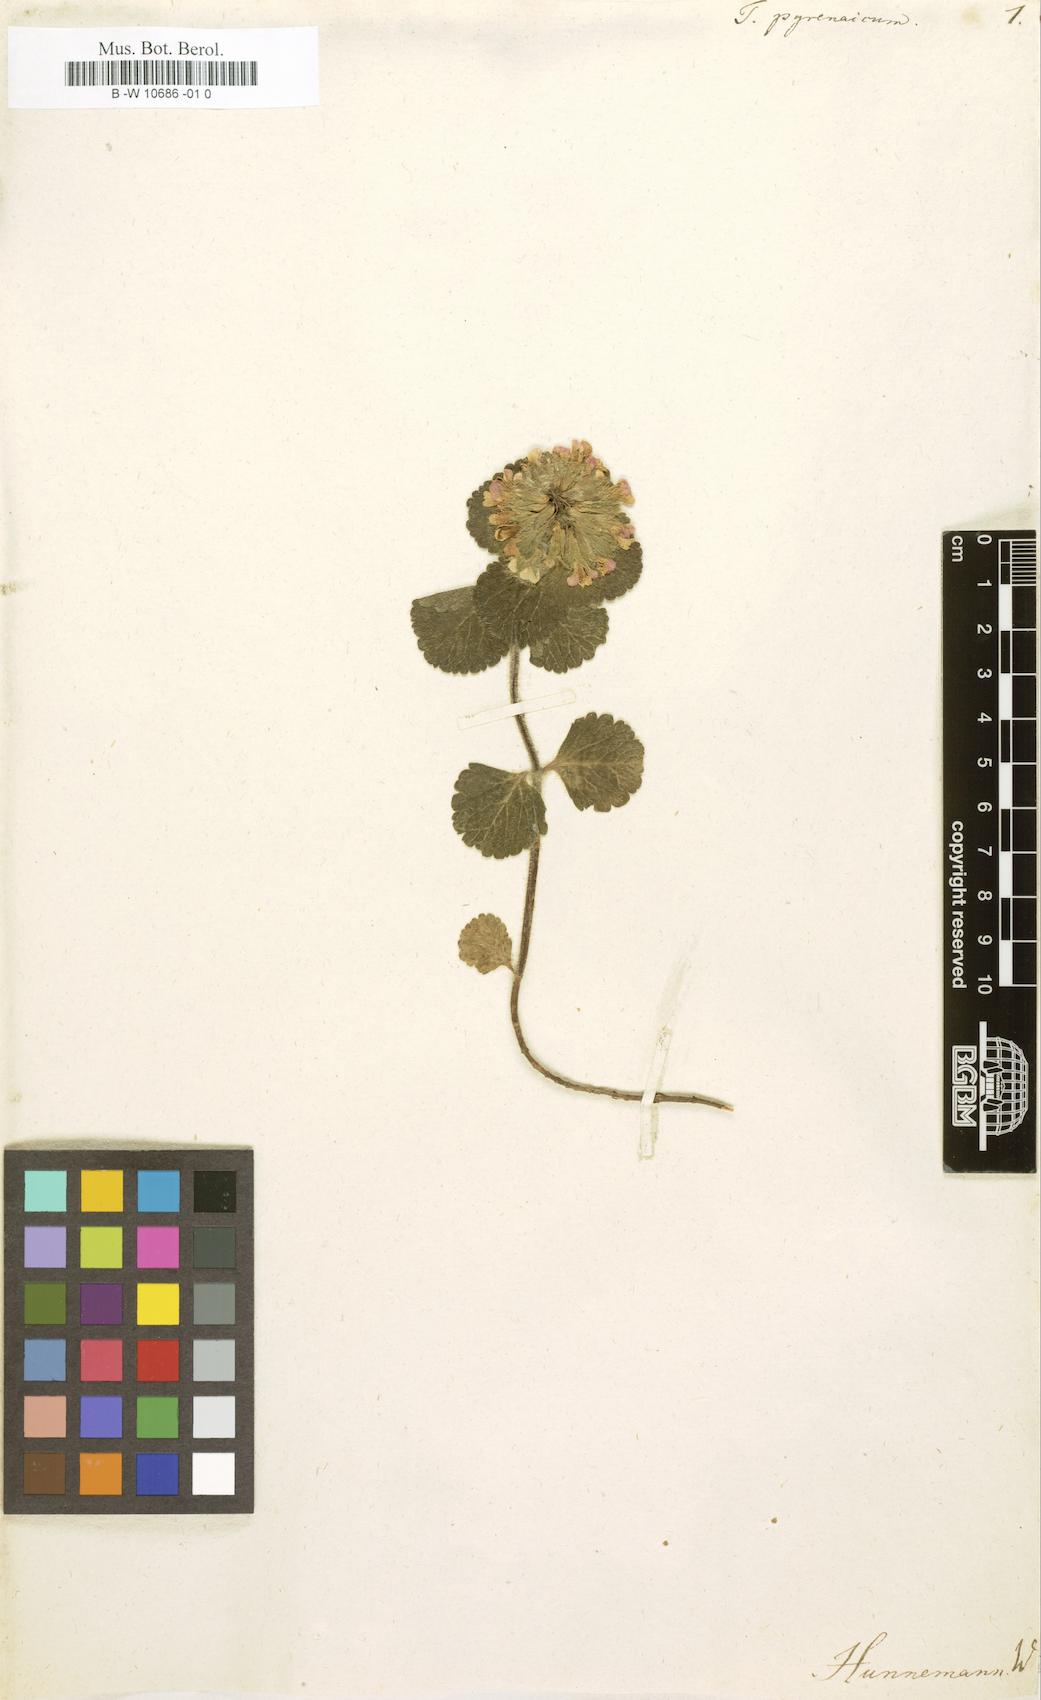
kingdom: Plantae
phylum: Tracheophyta
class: Magnoliopsida
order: Lamiales
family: Lamiaceae
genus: Teucrium
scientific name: Teucrium pyrenaicum
